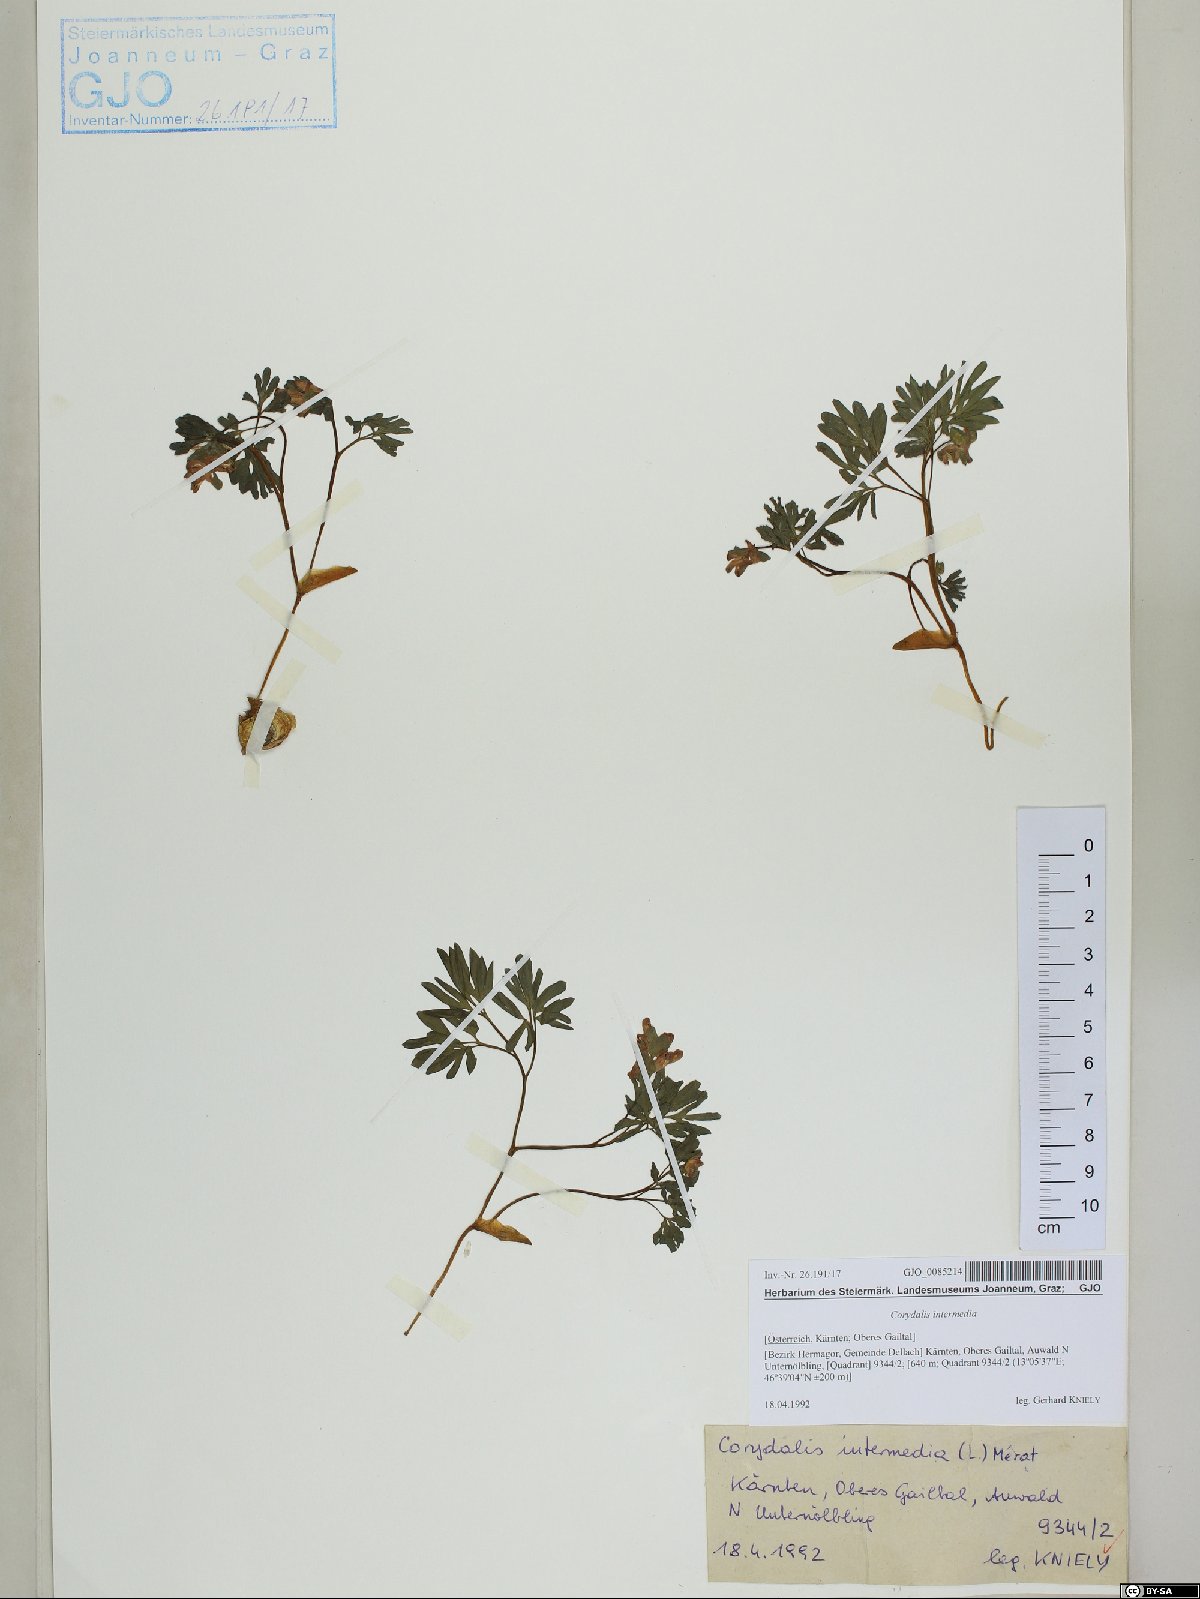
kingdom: Plantae
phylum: Tracheophyta
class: Magnoliopsida
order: Ranunculales
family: Papaveraceae
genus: Corydalis
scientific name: Corydalis intermedia
